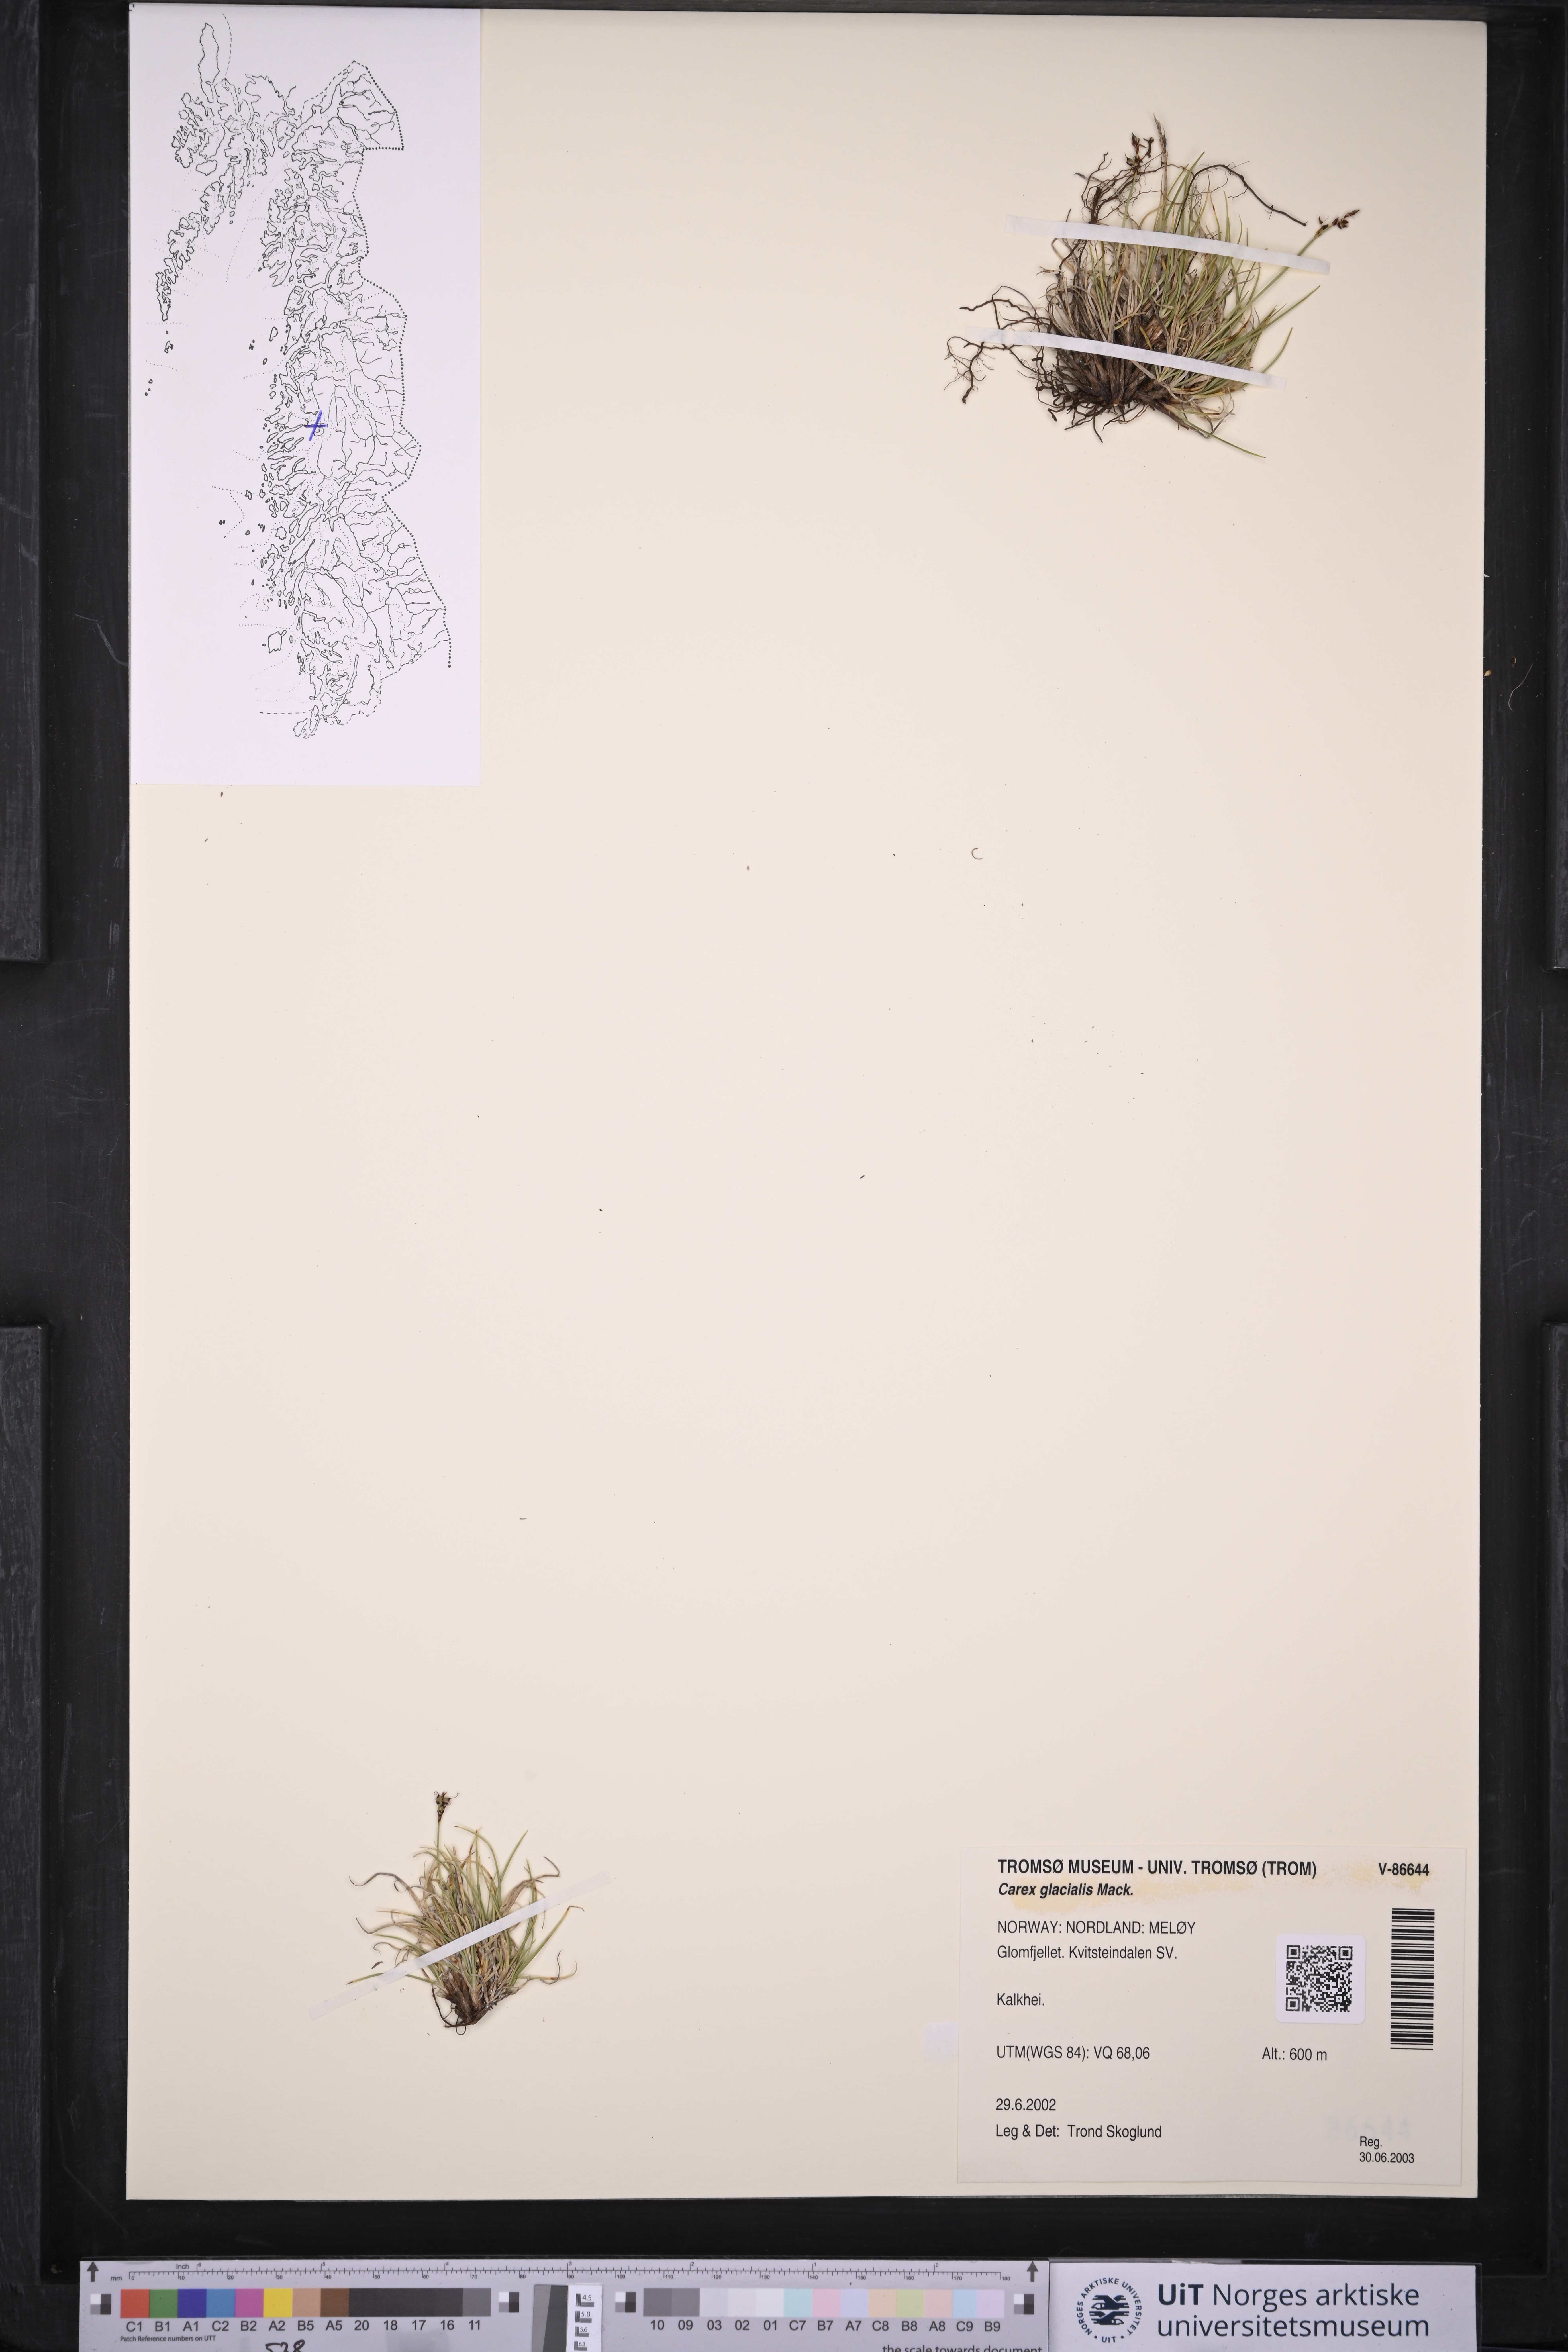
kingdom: Plantae
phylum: Tracheophyta
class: Liliopsida
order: Poales
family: Cyperaceae
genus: Carex
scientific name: Carex glacialis
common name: Newfoundland sedge
